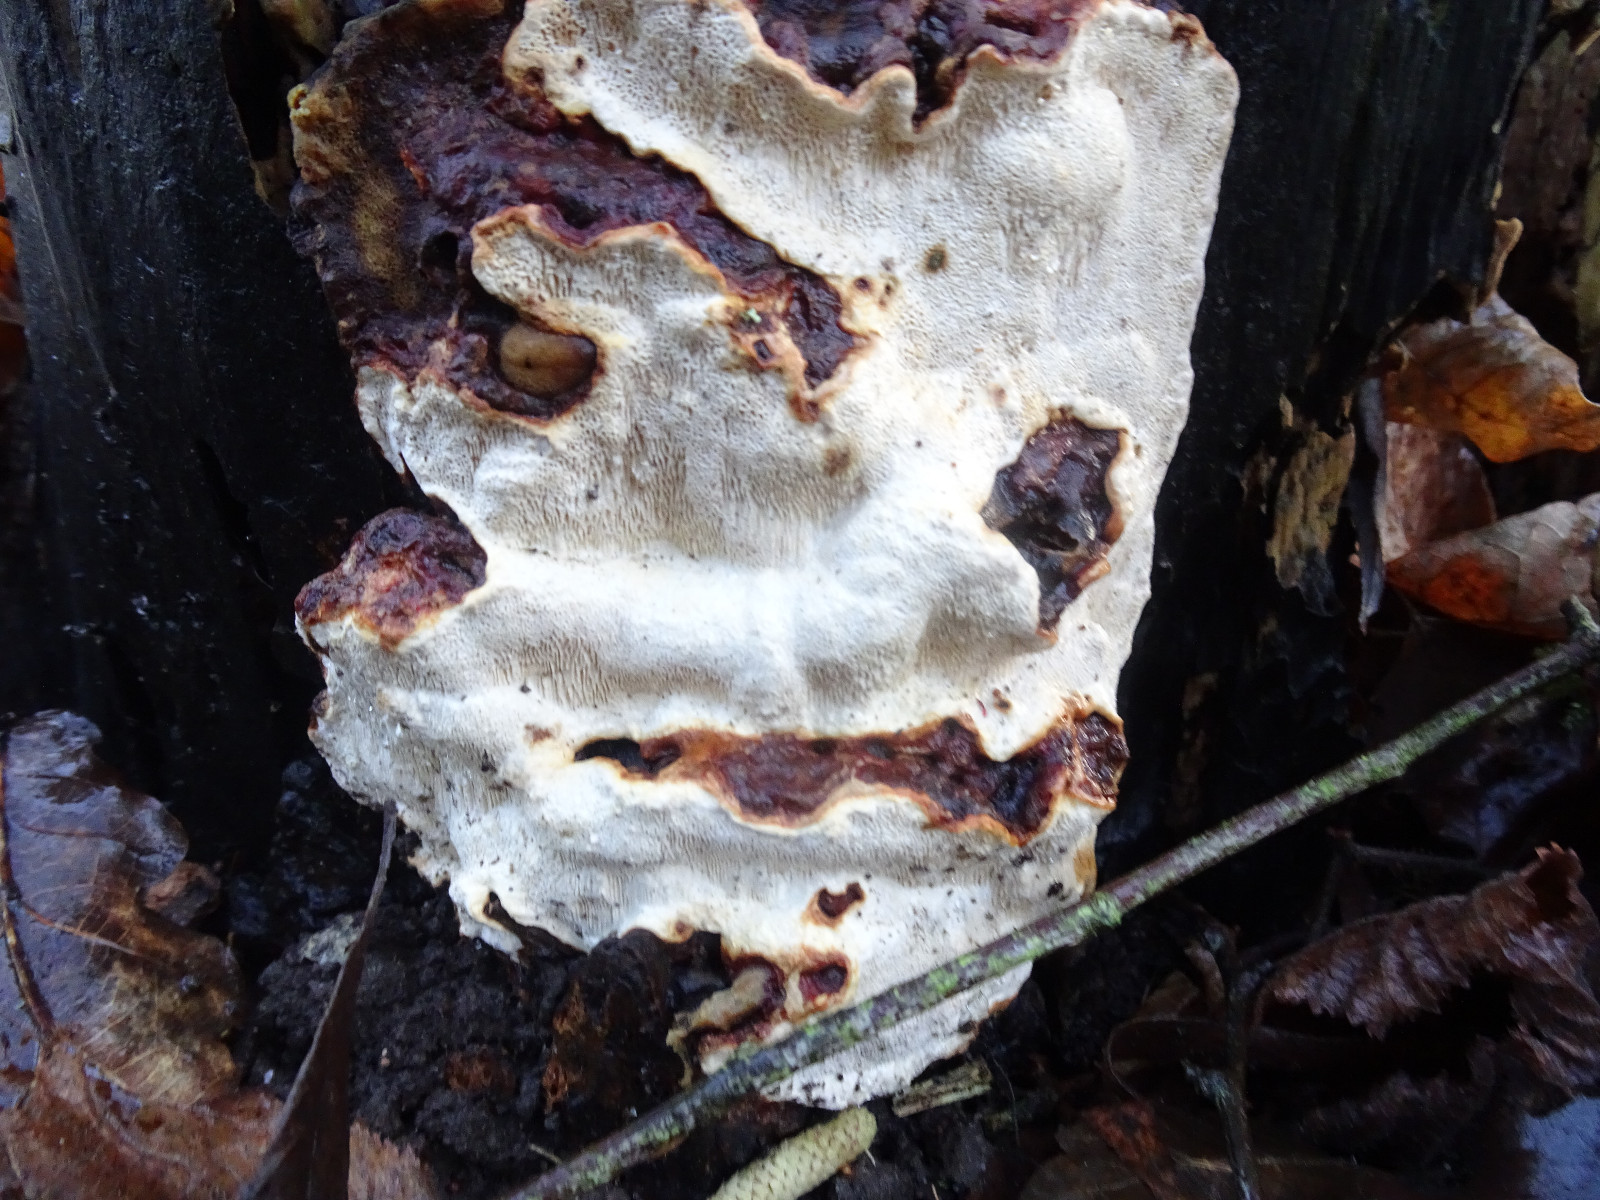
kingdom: Fungi
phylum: Basidiomycota
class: Agaricomycetes
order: Russulales
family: Bondarzewiaceae
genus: Heterobasidion
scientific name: Heterobasidion
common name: rodfordærver
